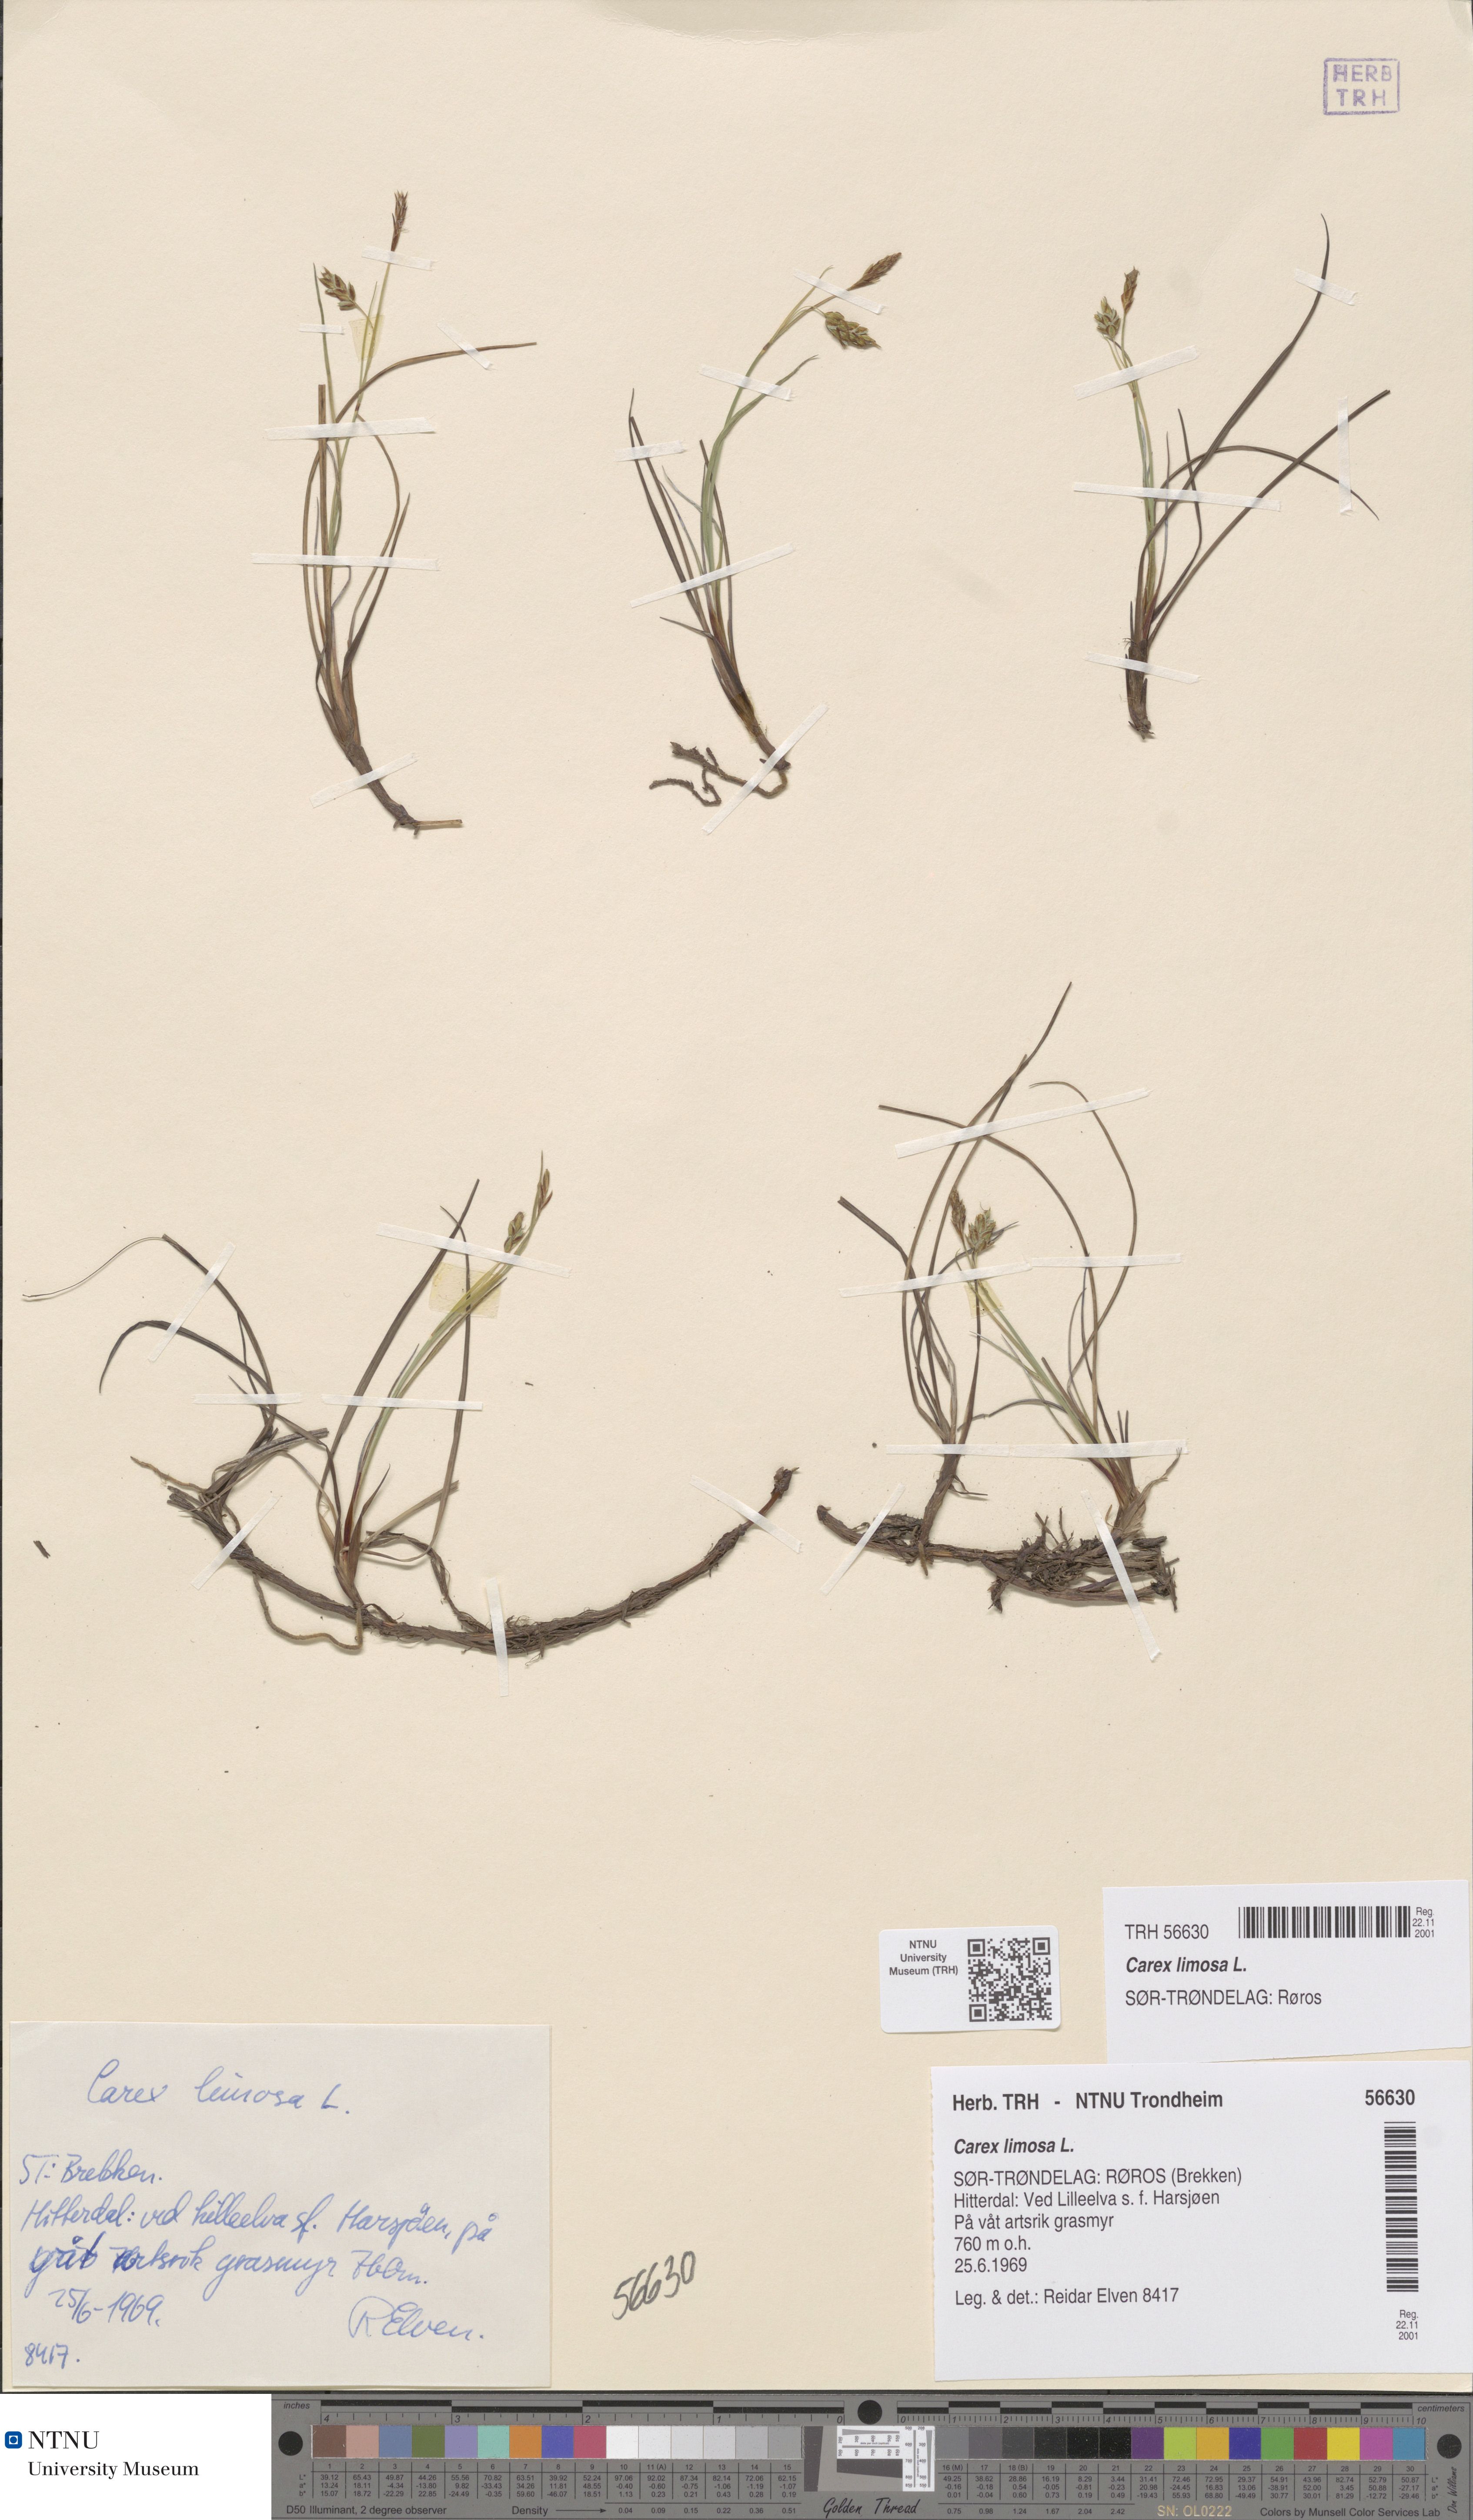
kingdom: Plantae
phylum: Tracheophyta
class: Liliopsida
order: Poales
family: Cyperaceae
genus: Carex
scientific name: Carex limosa
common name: Bog sedge
